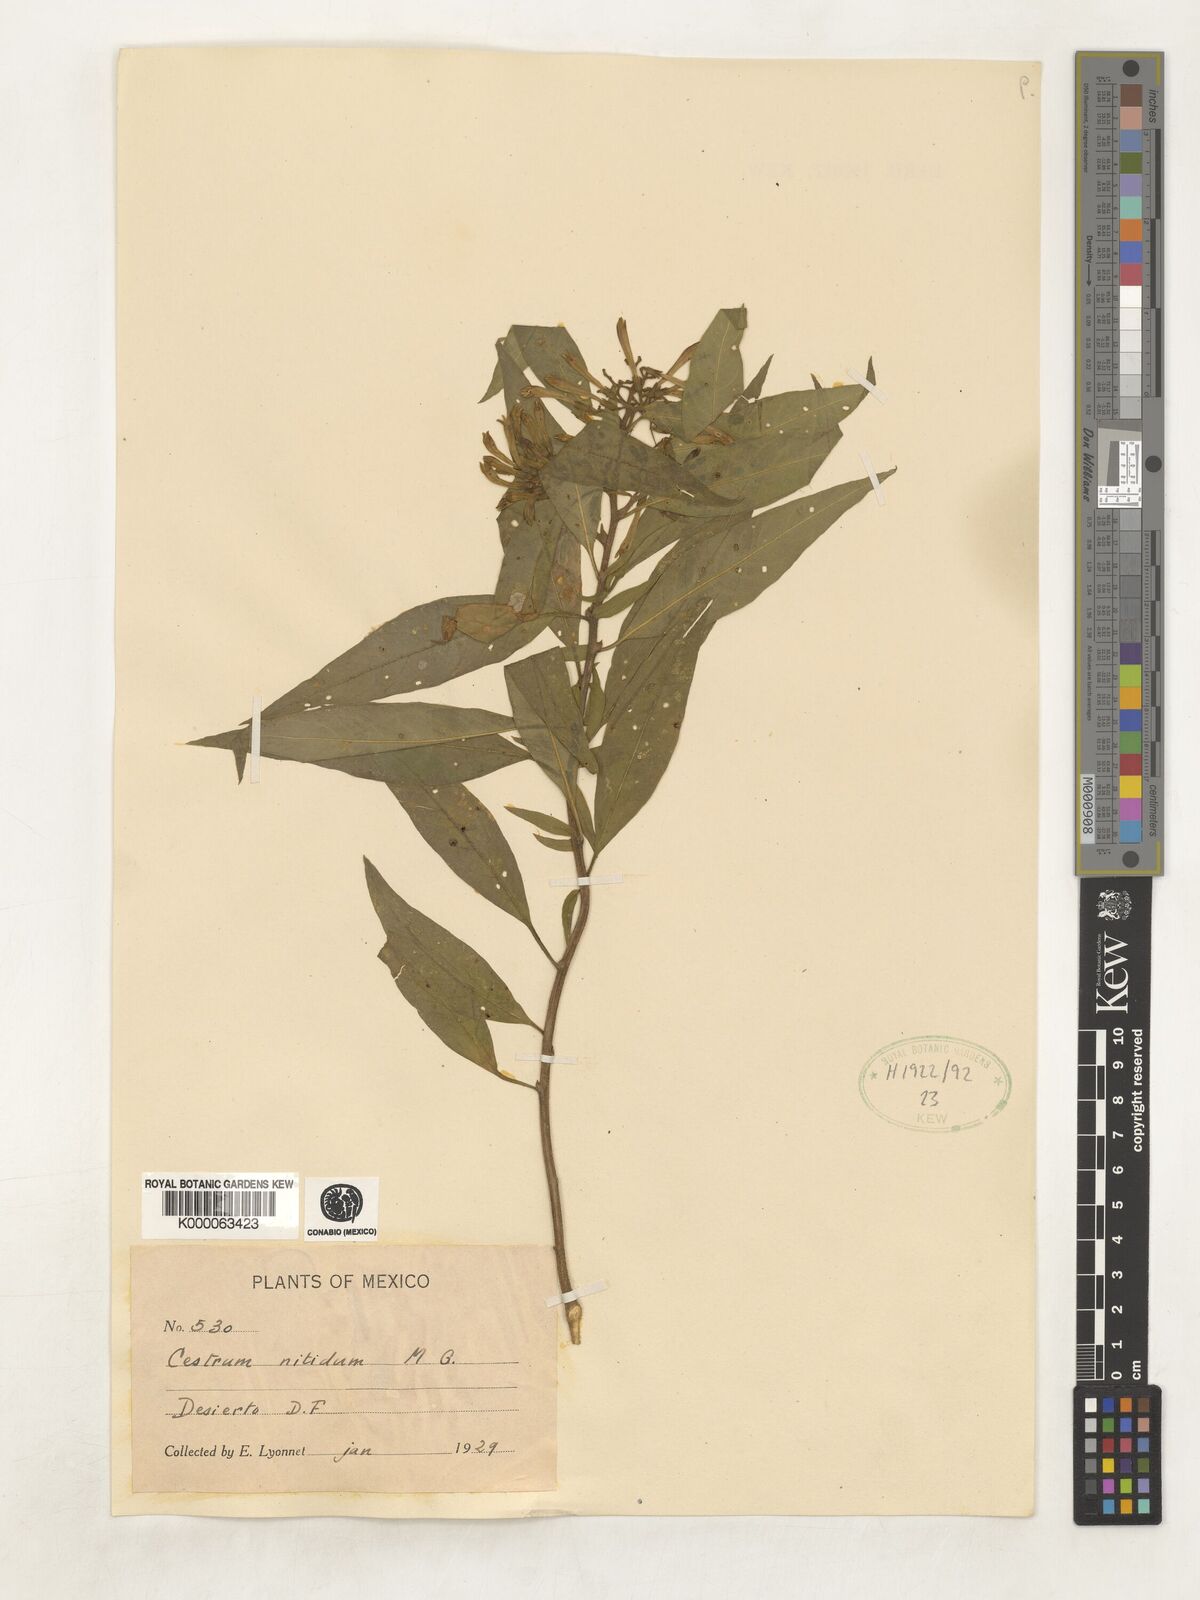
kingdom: Plantae
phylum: Tracheophyta
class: Magnoliopsida
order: Solanales
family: Solanaceae
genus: Cestrum
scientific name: Cestrum nitidum
